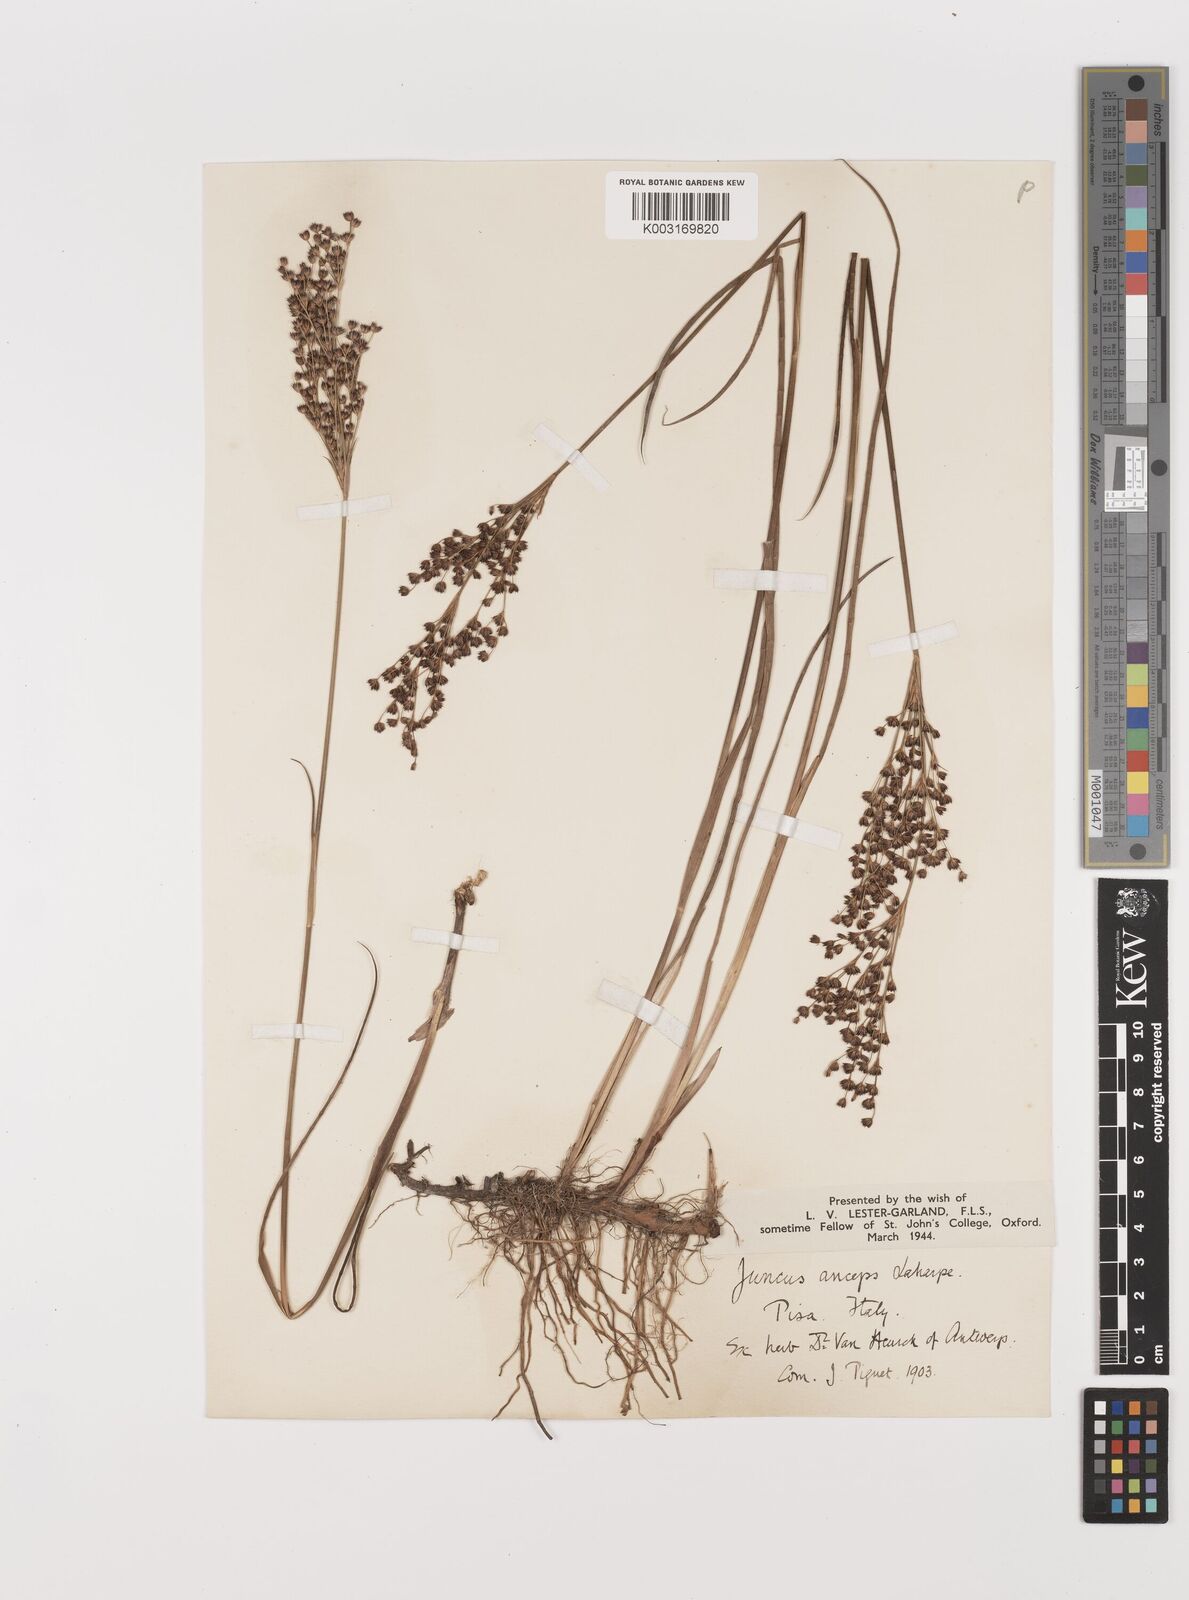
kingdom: Plantae
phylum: Tracheophyta
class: Liliopsida
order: Poales
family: Juncaceae
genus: Juncus
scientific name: Juncus anceps
